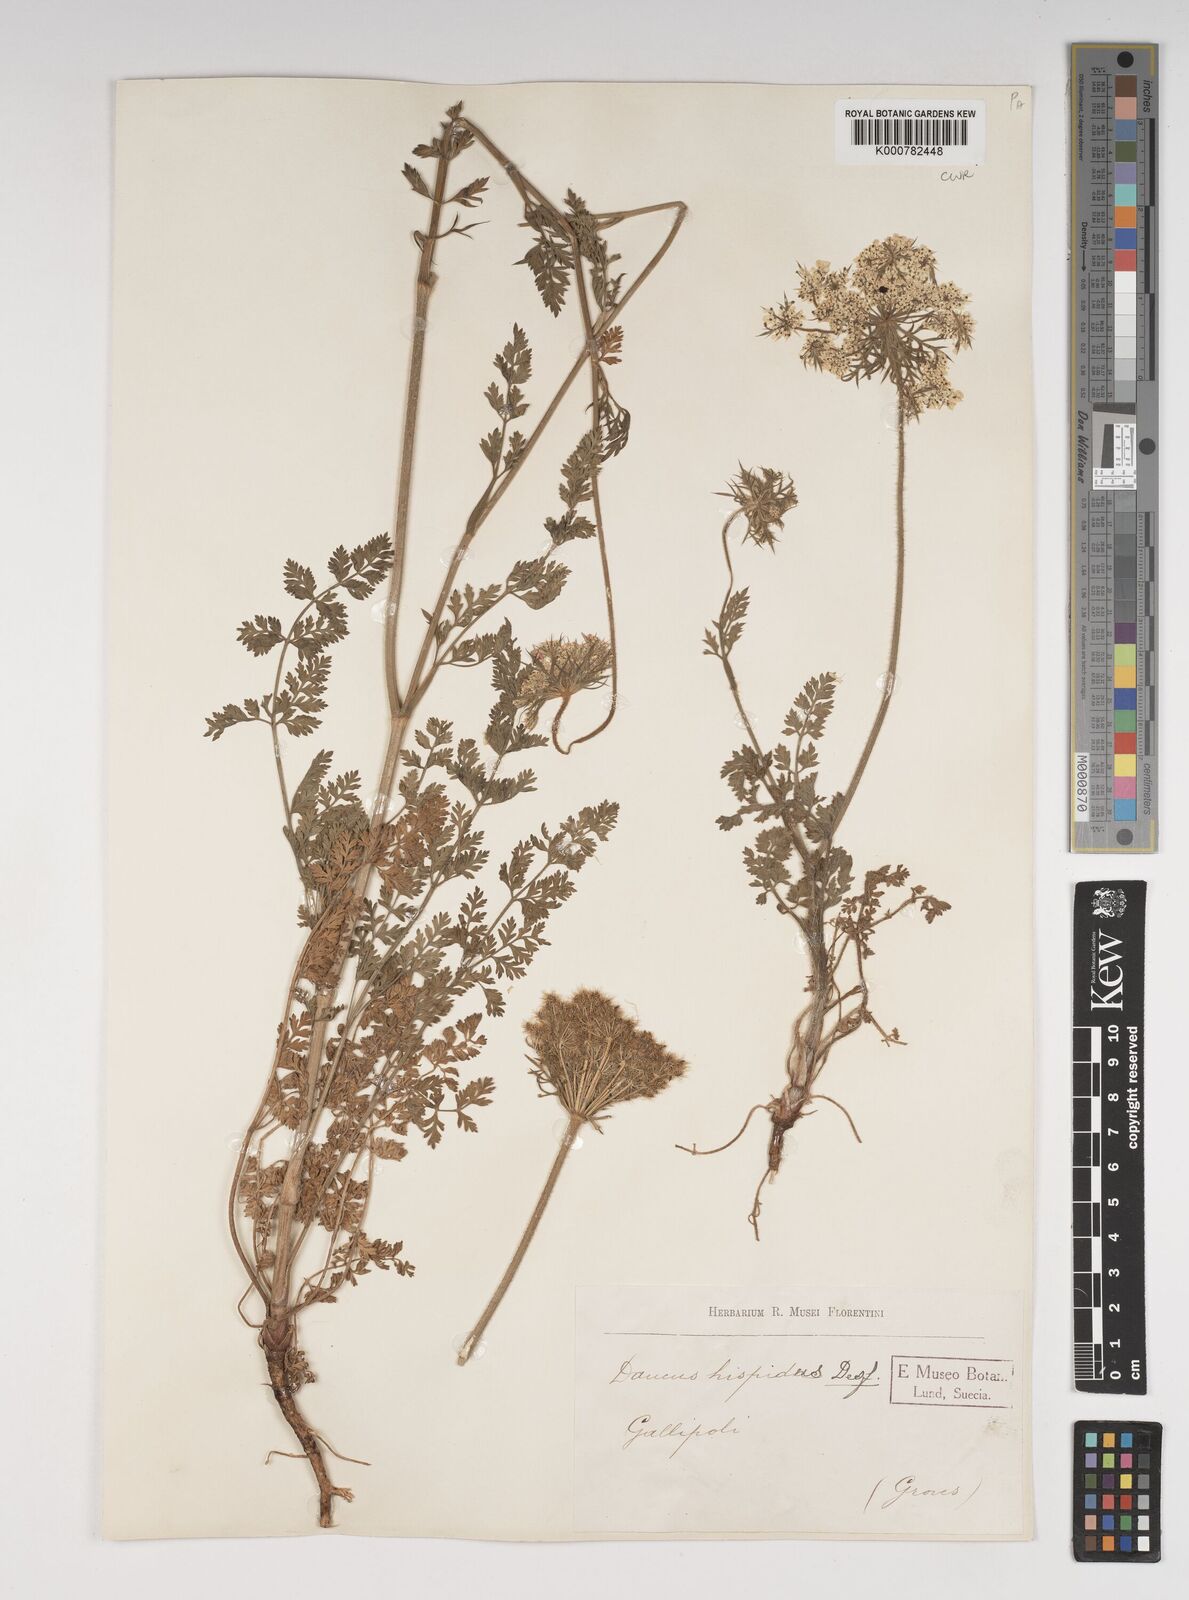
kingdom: Plantae
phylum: Tracheophyta
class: Magnoliopsida
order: Apiales
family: Apiaceae
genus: Daucus
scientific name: Daucus carota
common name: Wild carrot
